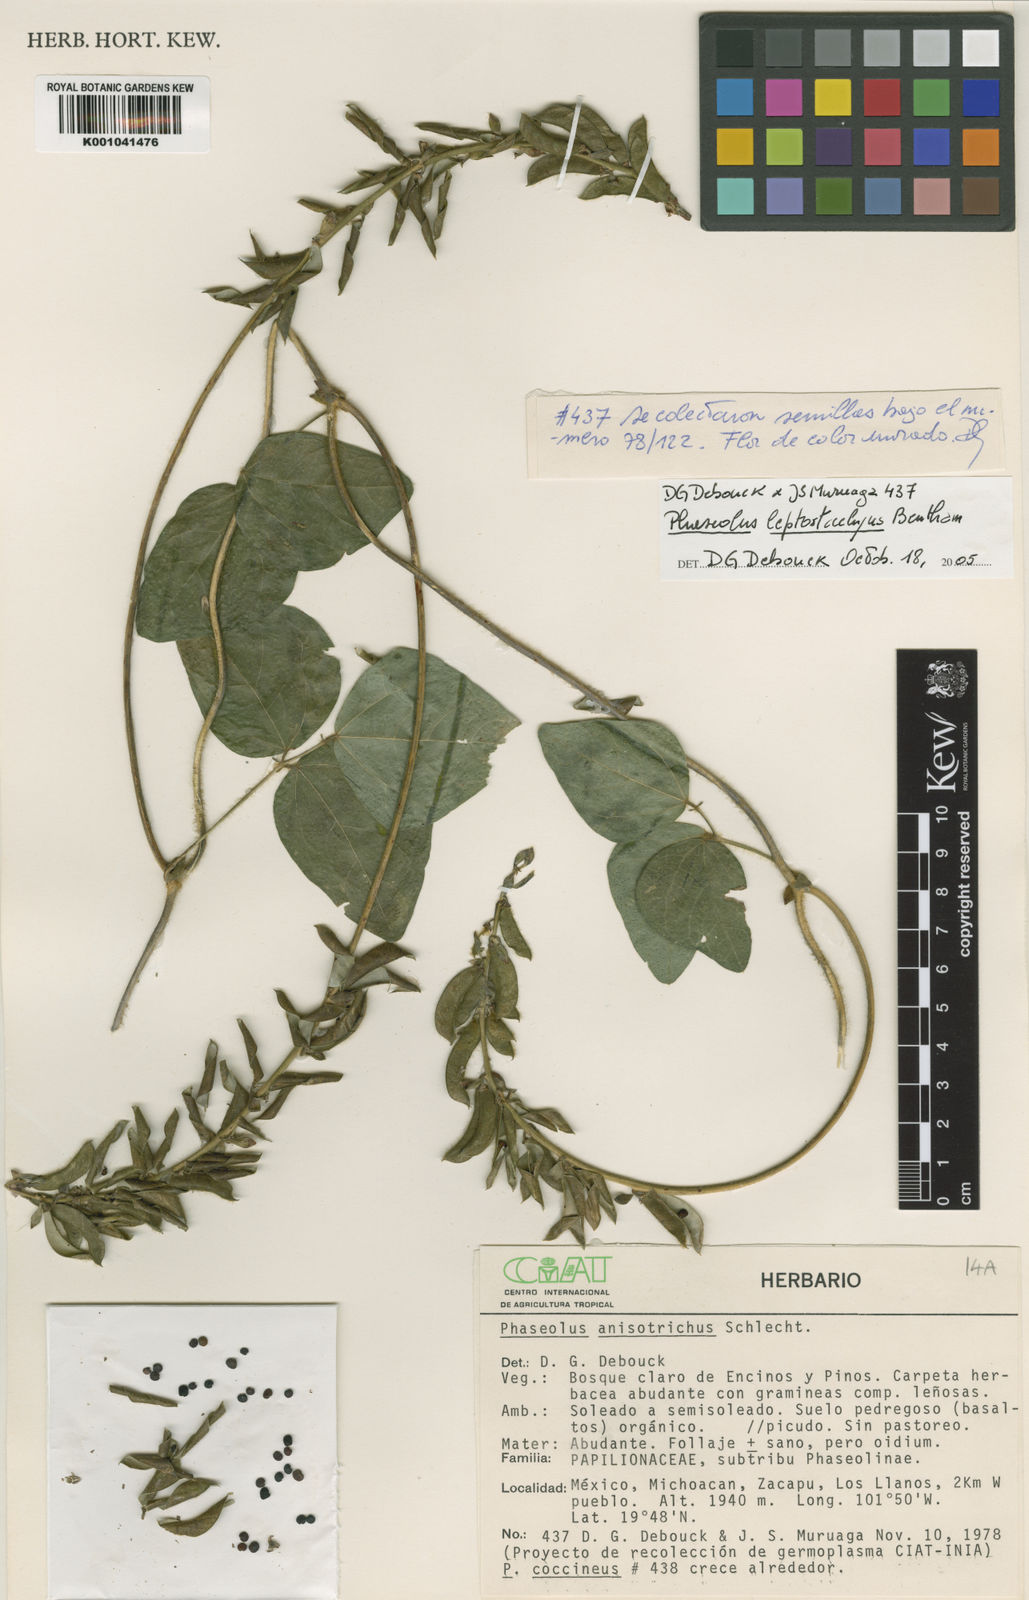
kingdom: Plantae
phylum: Tracheophyta
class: Magnoliopsida
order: Fabales
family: Fabaceae
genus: Phaseolus
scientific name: Phaseolus
